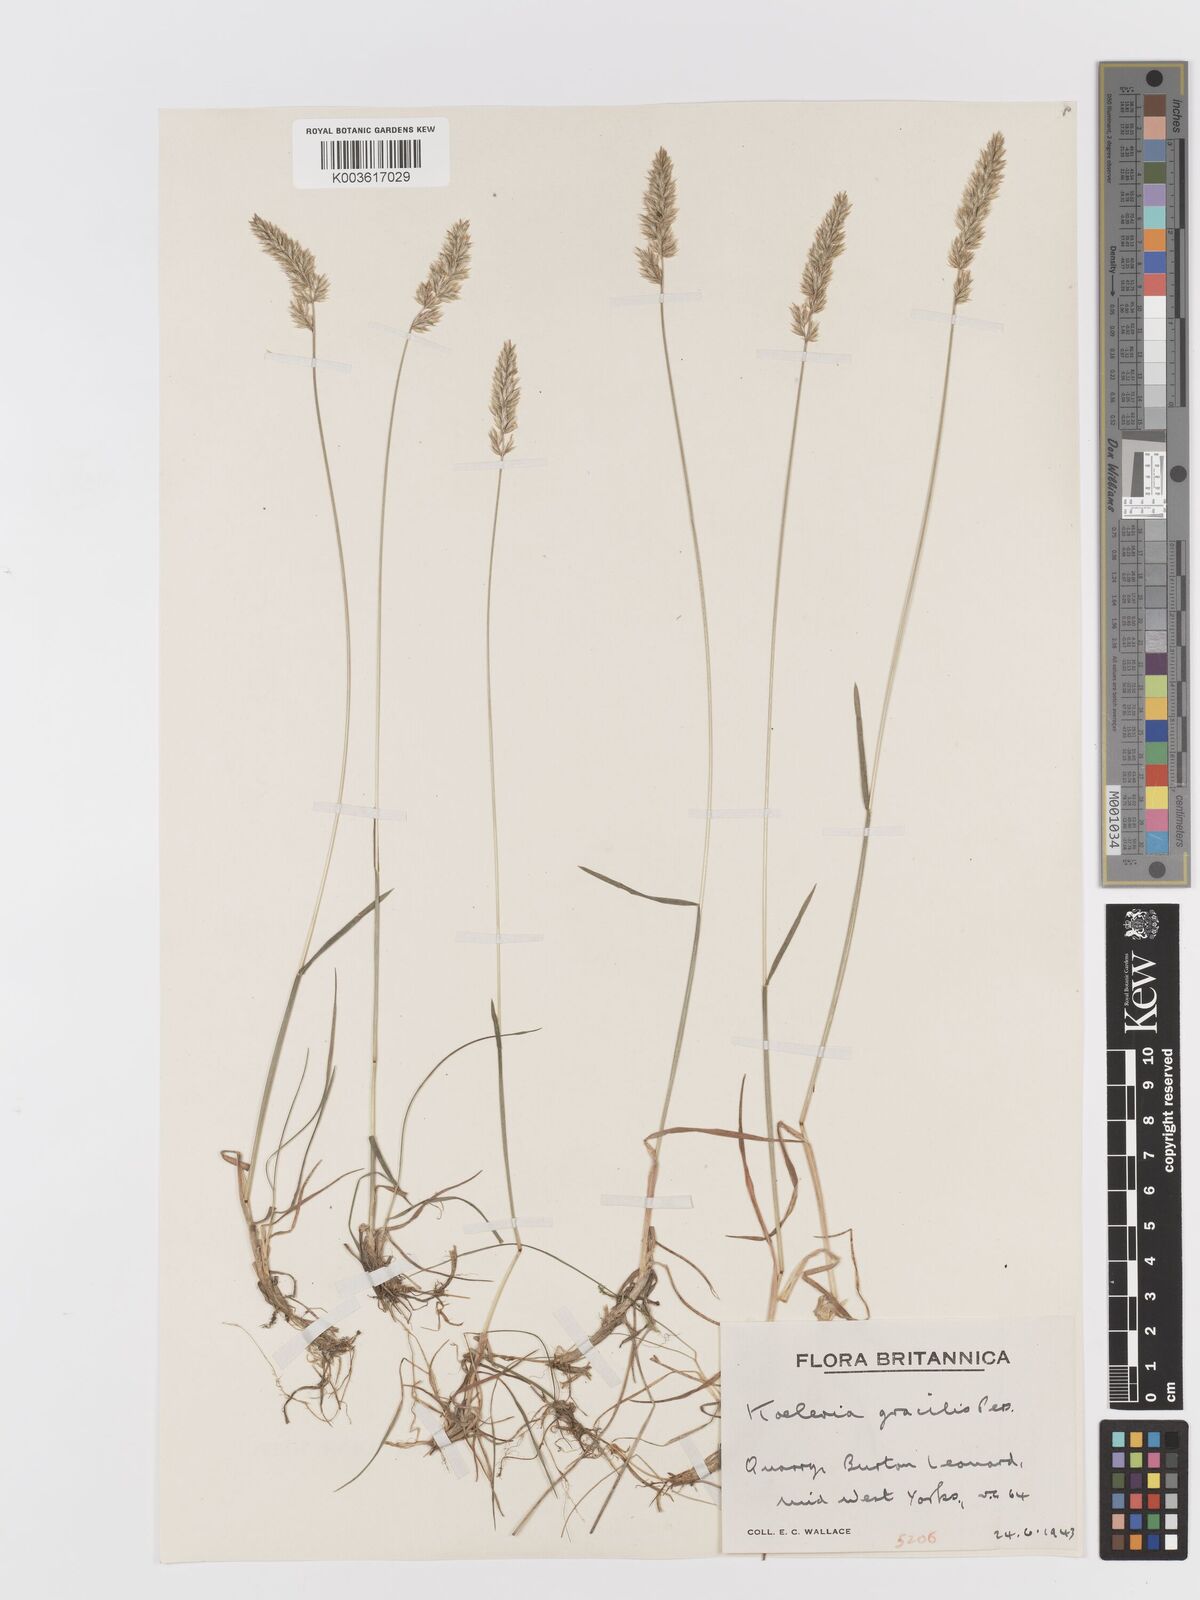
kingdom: Plantae
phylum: Tracheophyta
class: Liliopsida
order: Poales
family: Poaceae
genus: Koeleria
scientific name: Koeleria macrantha
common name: Crested hair-grass
